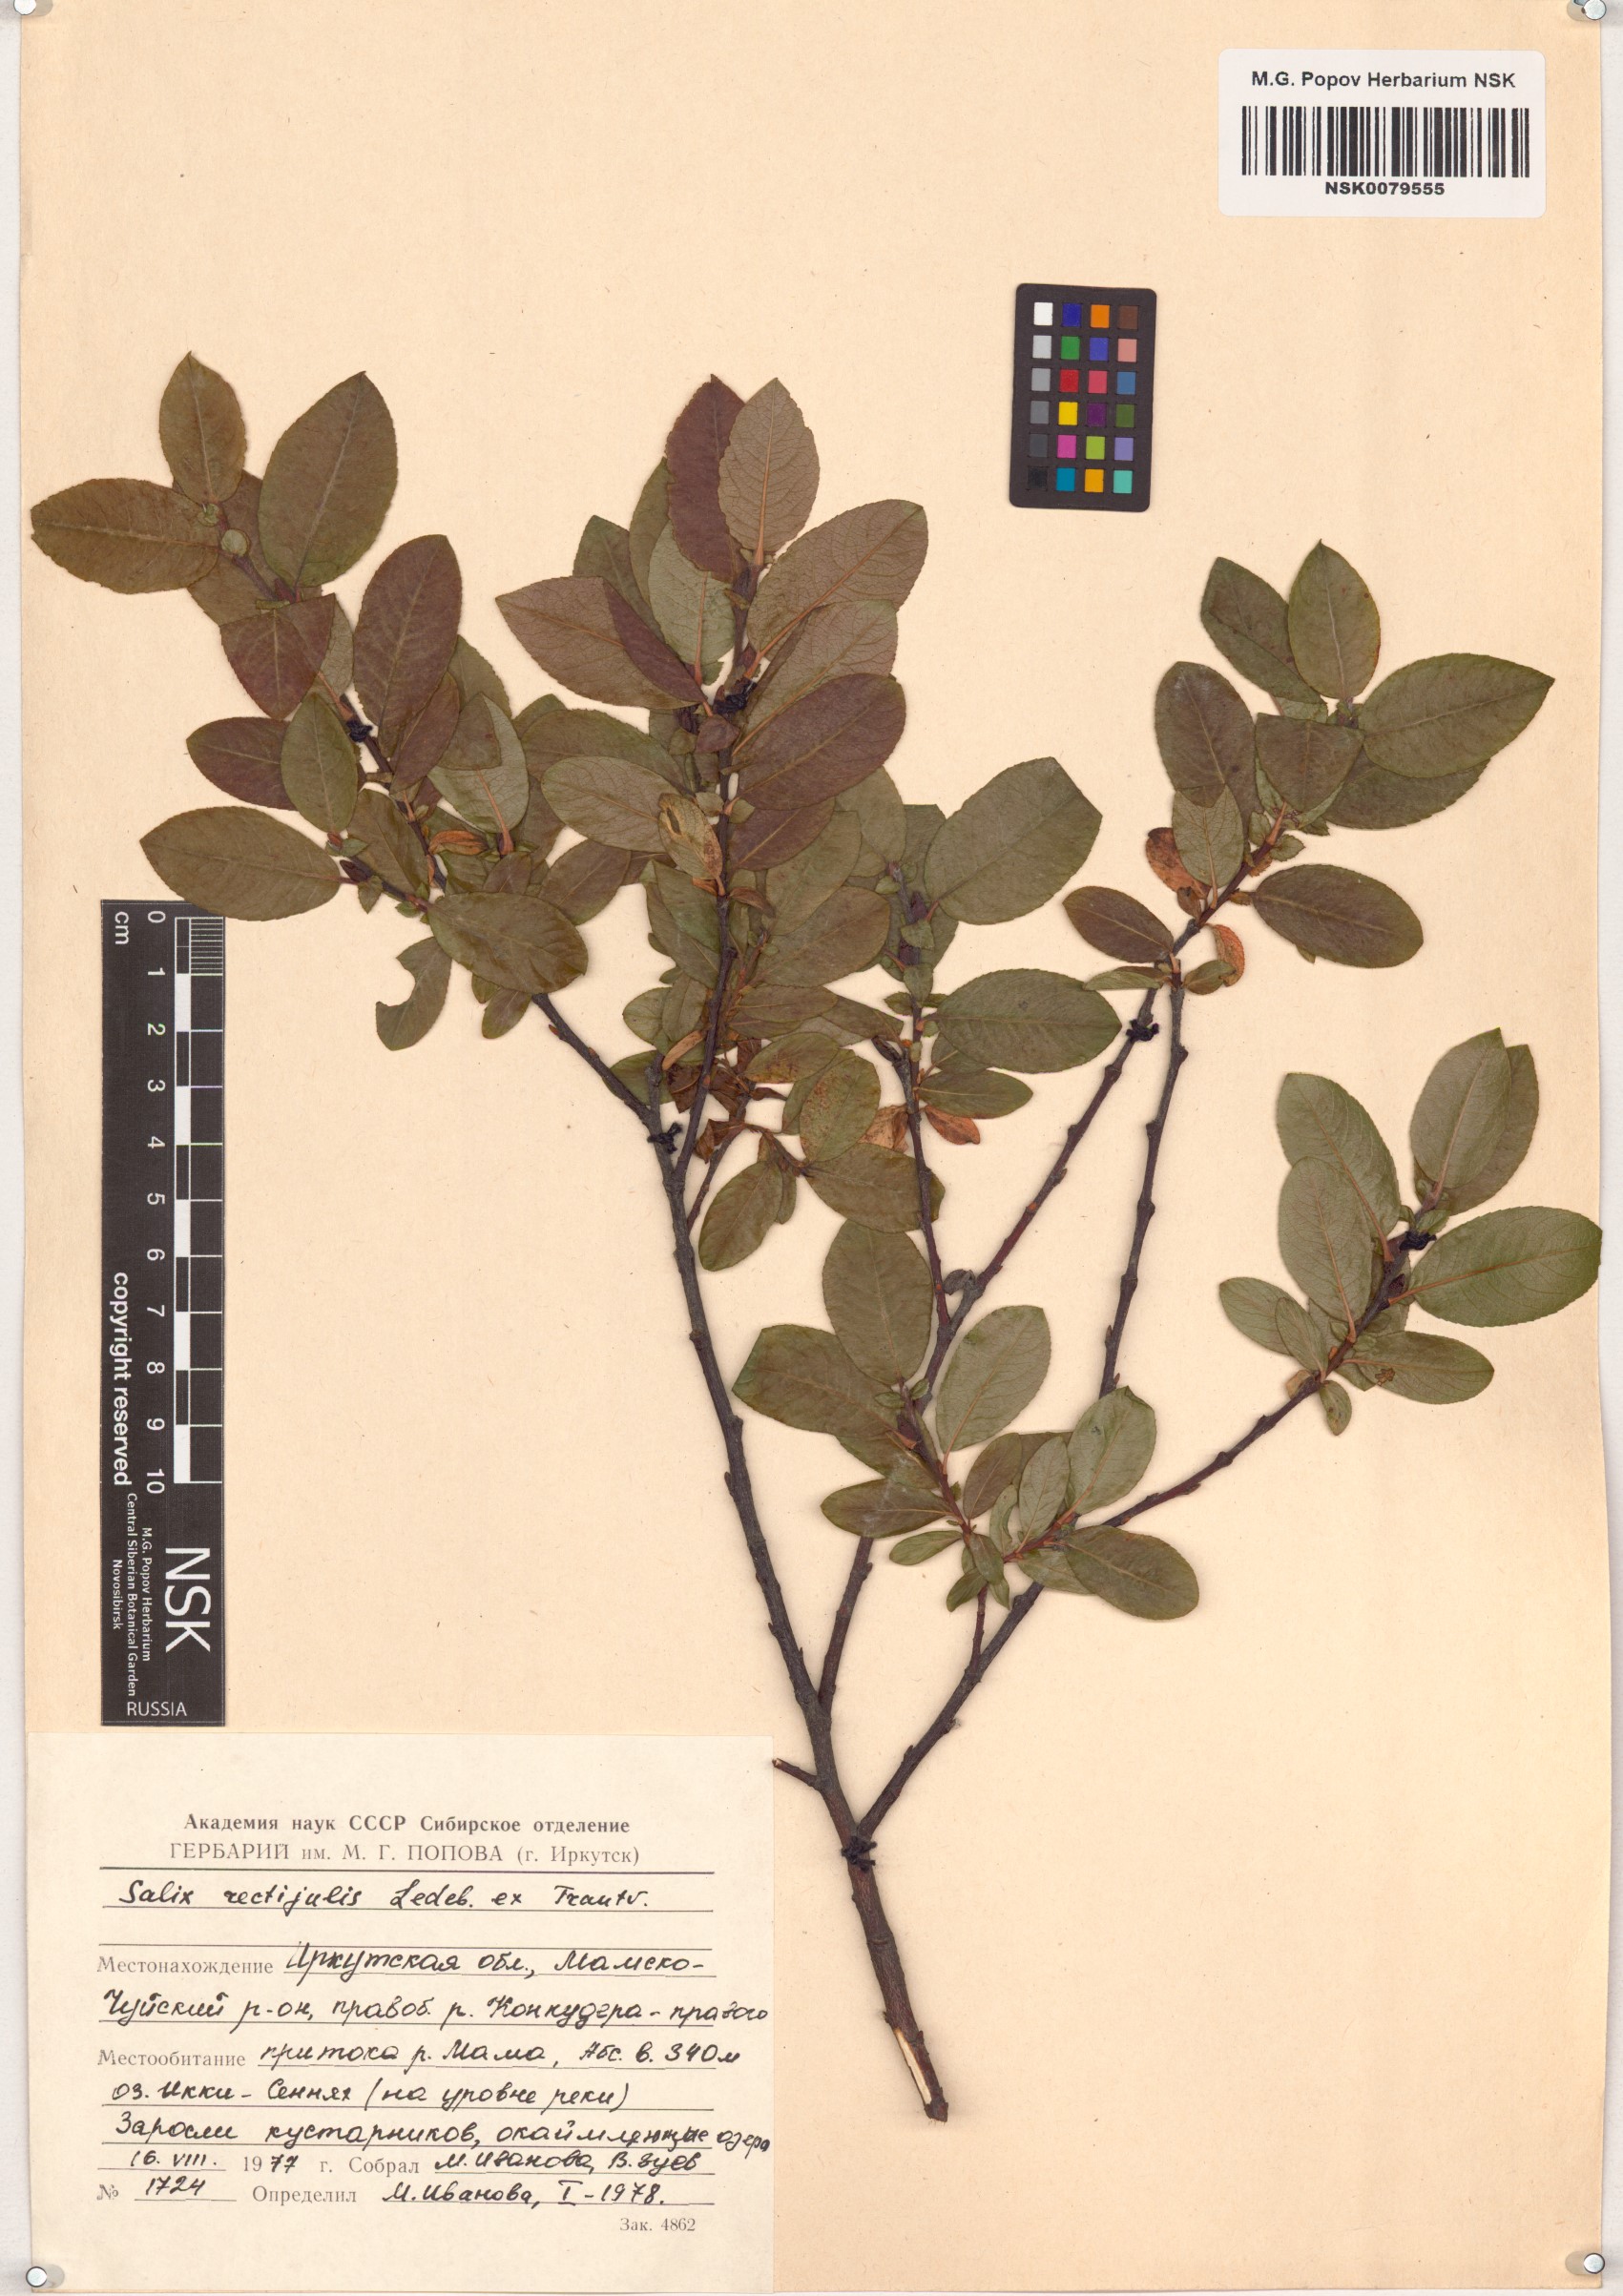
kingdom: Plantae
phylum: Tracheophyta
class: Magnoliopsida
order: Malpighiales
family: Salicaceae
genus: Salix
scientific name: Salix rectijulis
